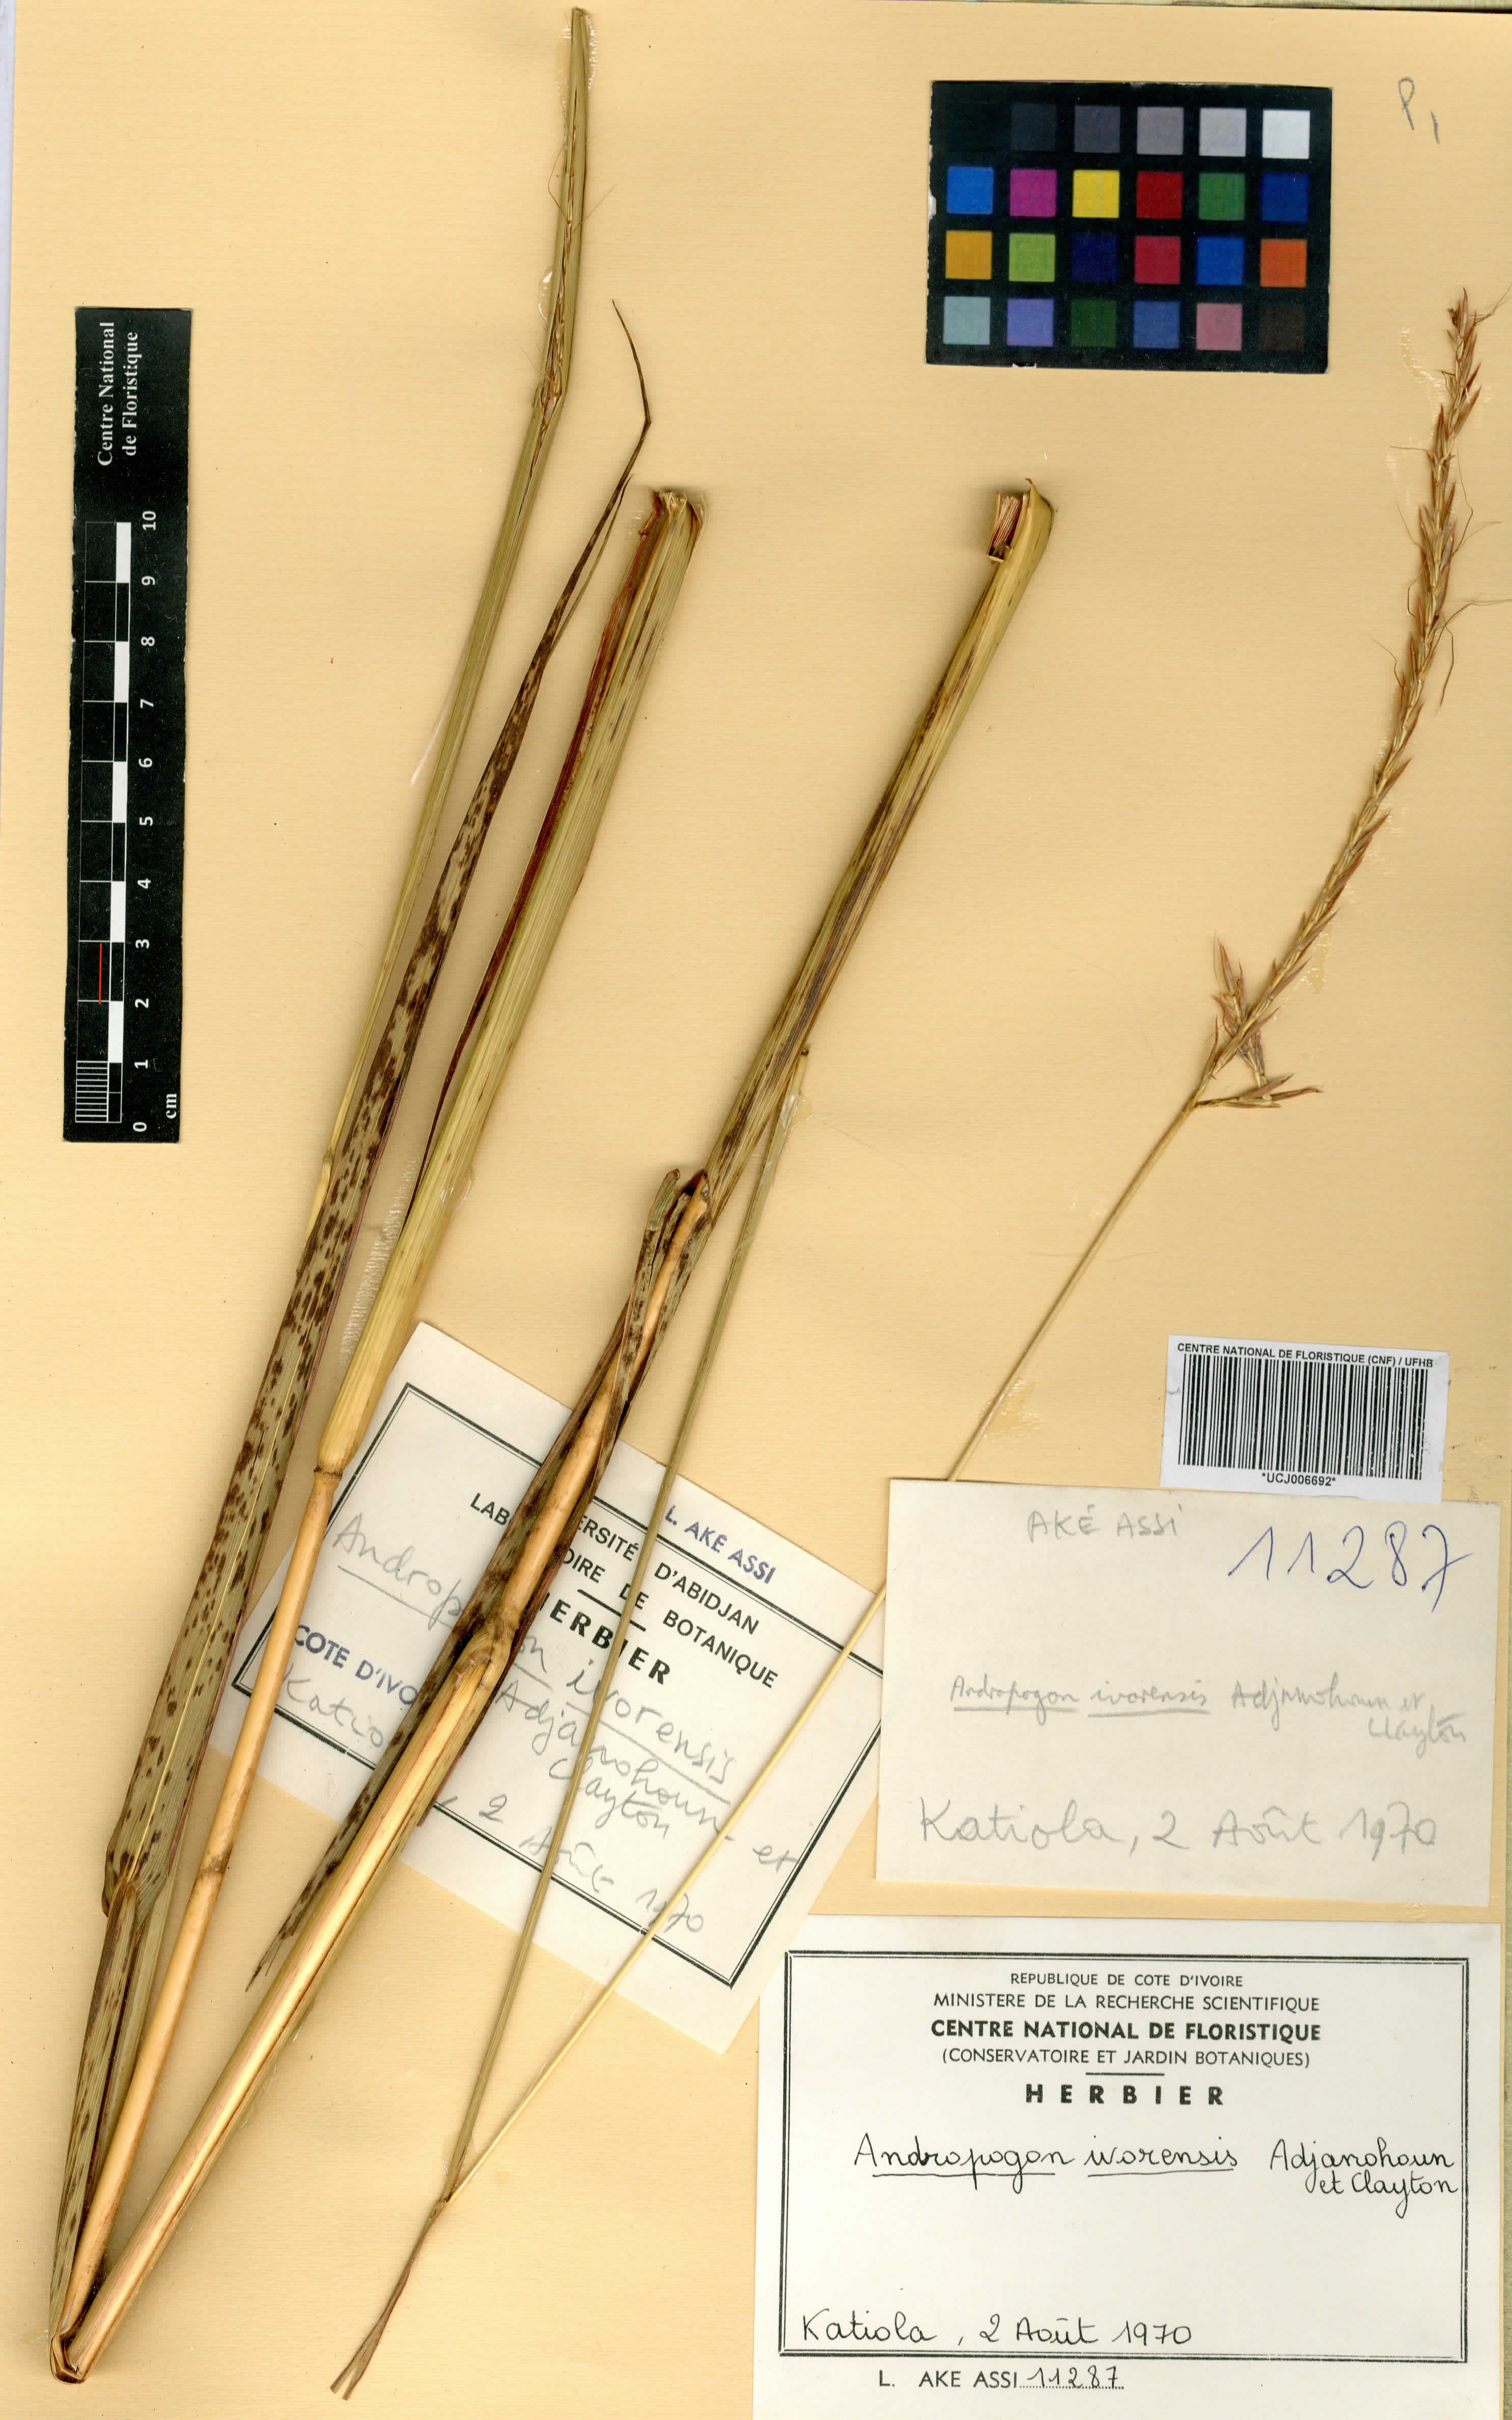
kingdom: Plantae
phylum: Tracheophyta
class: Liliopsida
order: Poales
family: Poaceae
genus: Andropogon
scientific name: Andropogon ivorensis
